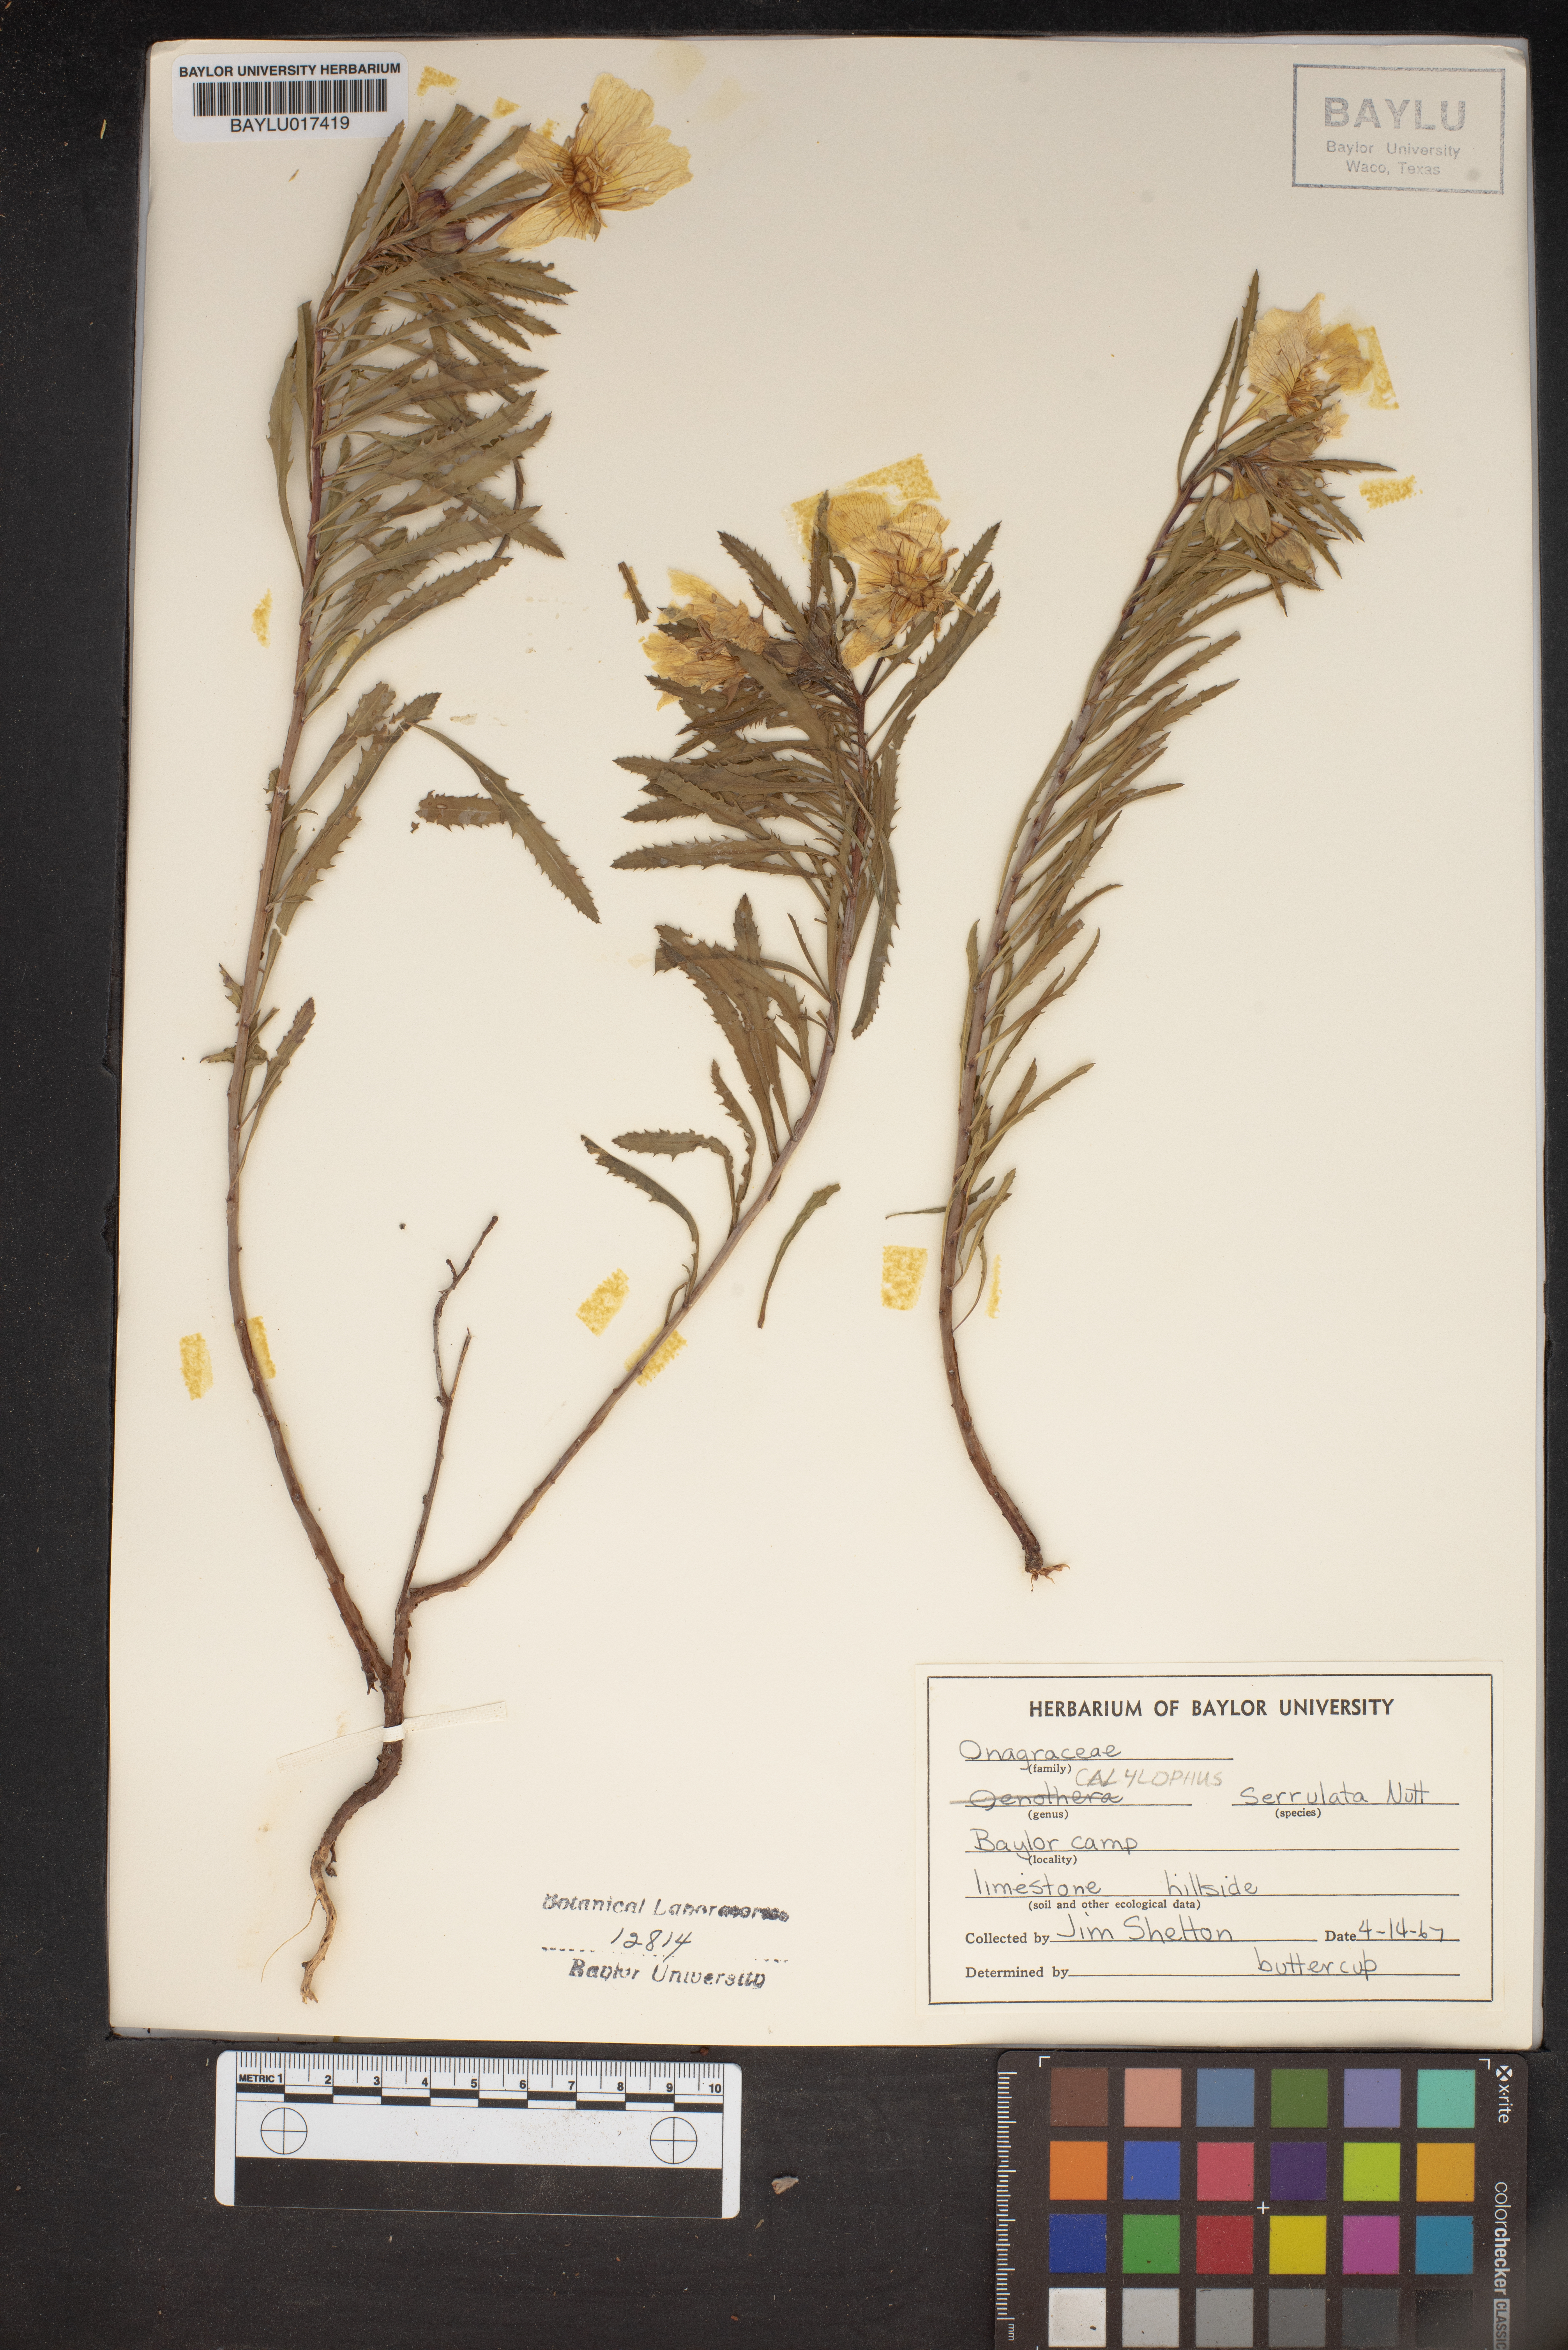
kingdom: Plantae
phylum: Tracheophyta
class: Magnoliopsida
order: Myrtales
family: Onagraceae
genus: Oenothera
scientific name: Oenothera serrulata
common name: Half-shrub calylophus
